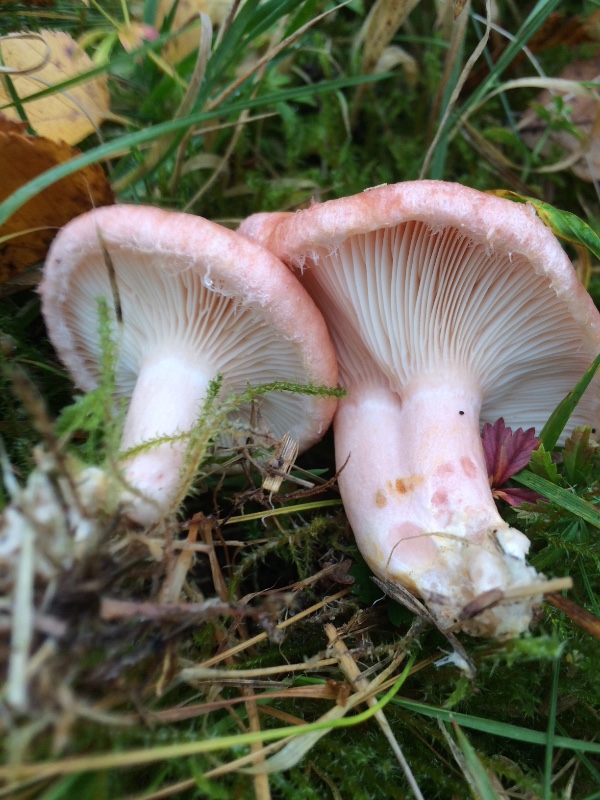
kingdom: Fungi
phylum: Basidiomycota
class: Agaricomycetes
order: Russulales
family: Russulaceae
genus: Lactarius
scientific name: Lactarius torminosus
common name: skægget mælkehat
